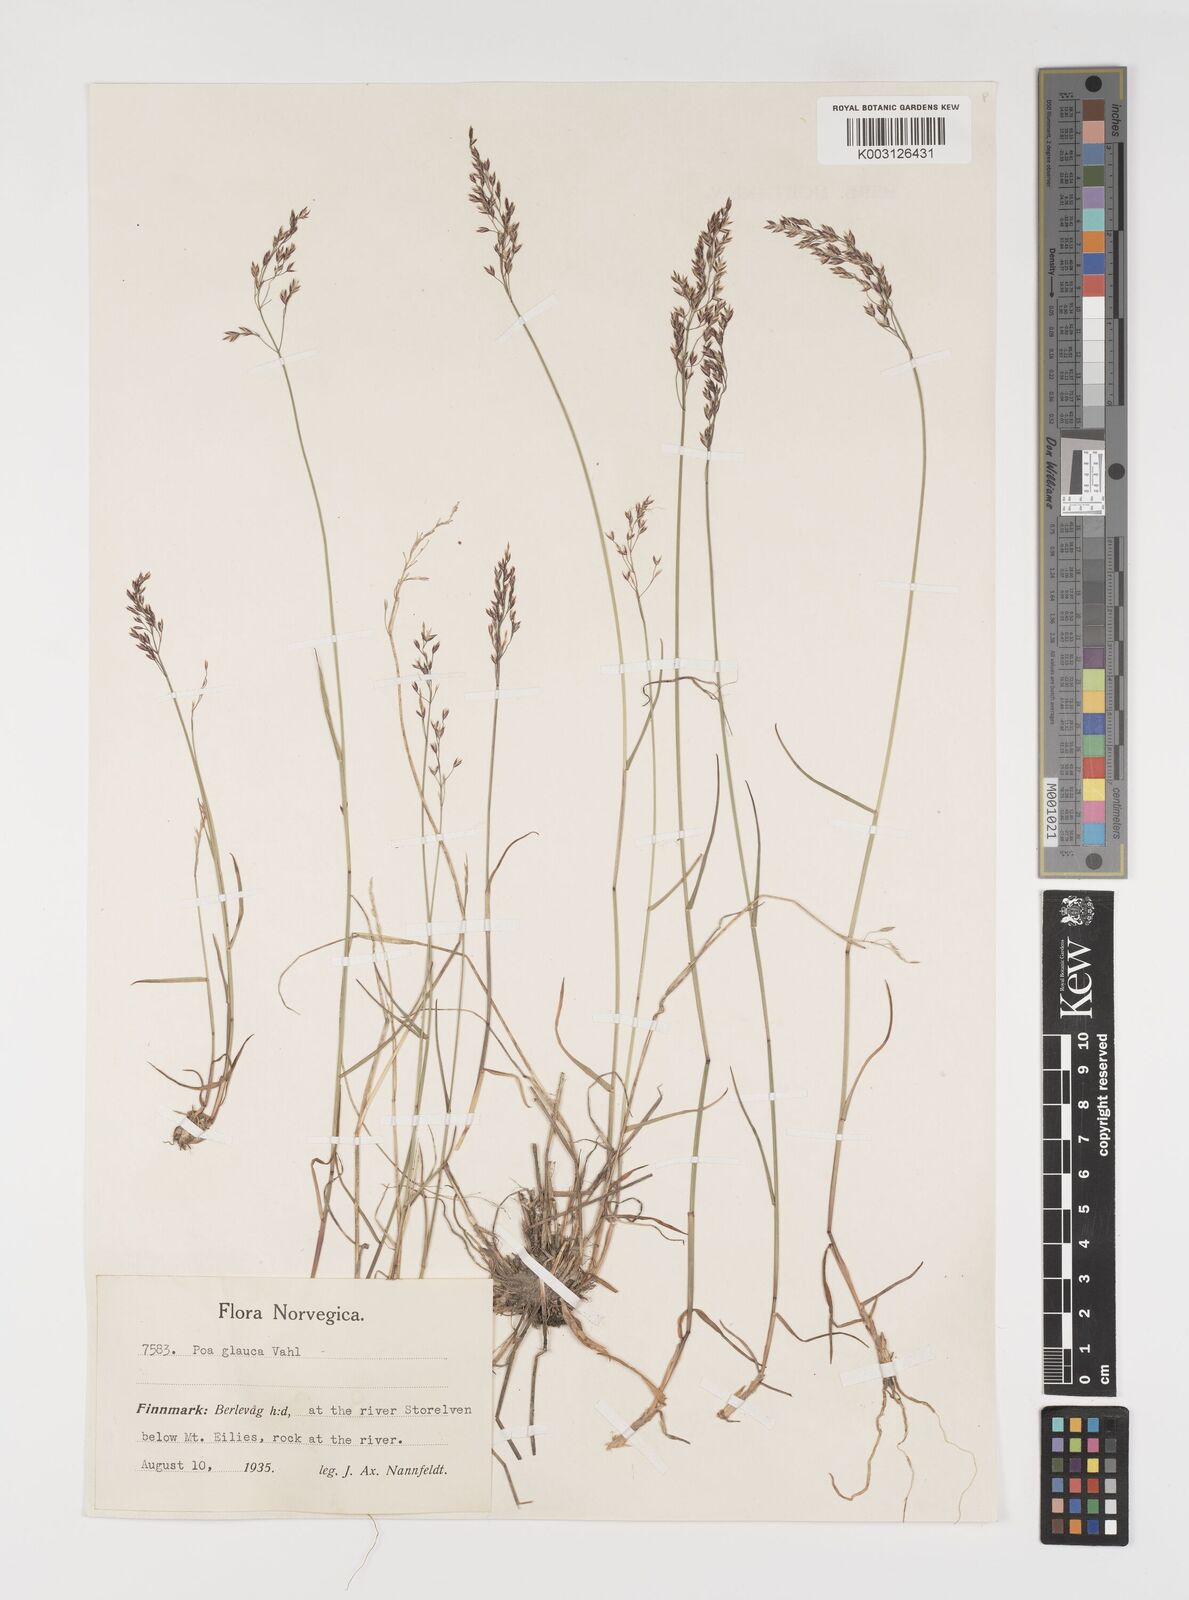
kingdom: Plantae
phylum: Tracheophyta
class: Liliopsida
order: Poales
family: Poaceae
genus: Poa
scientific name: Poa nemoralis
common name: Wood bluegrass
